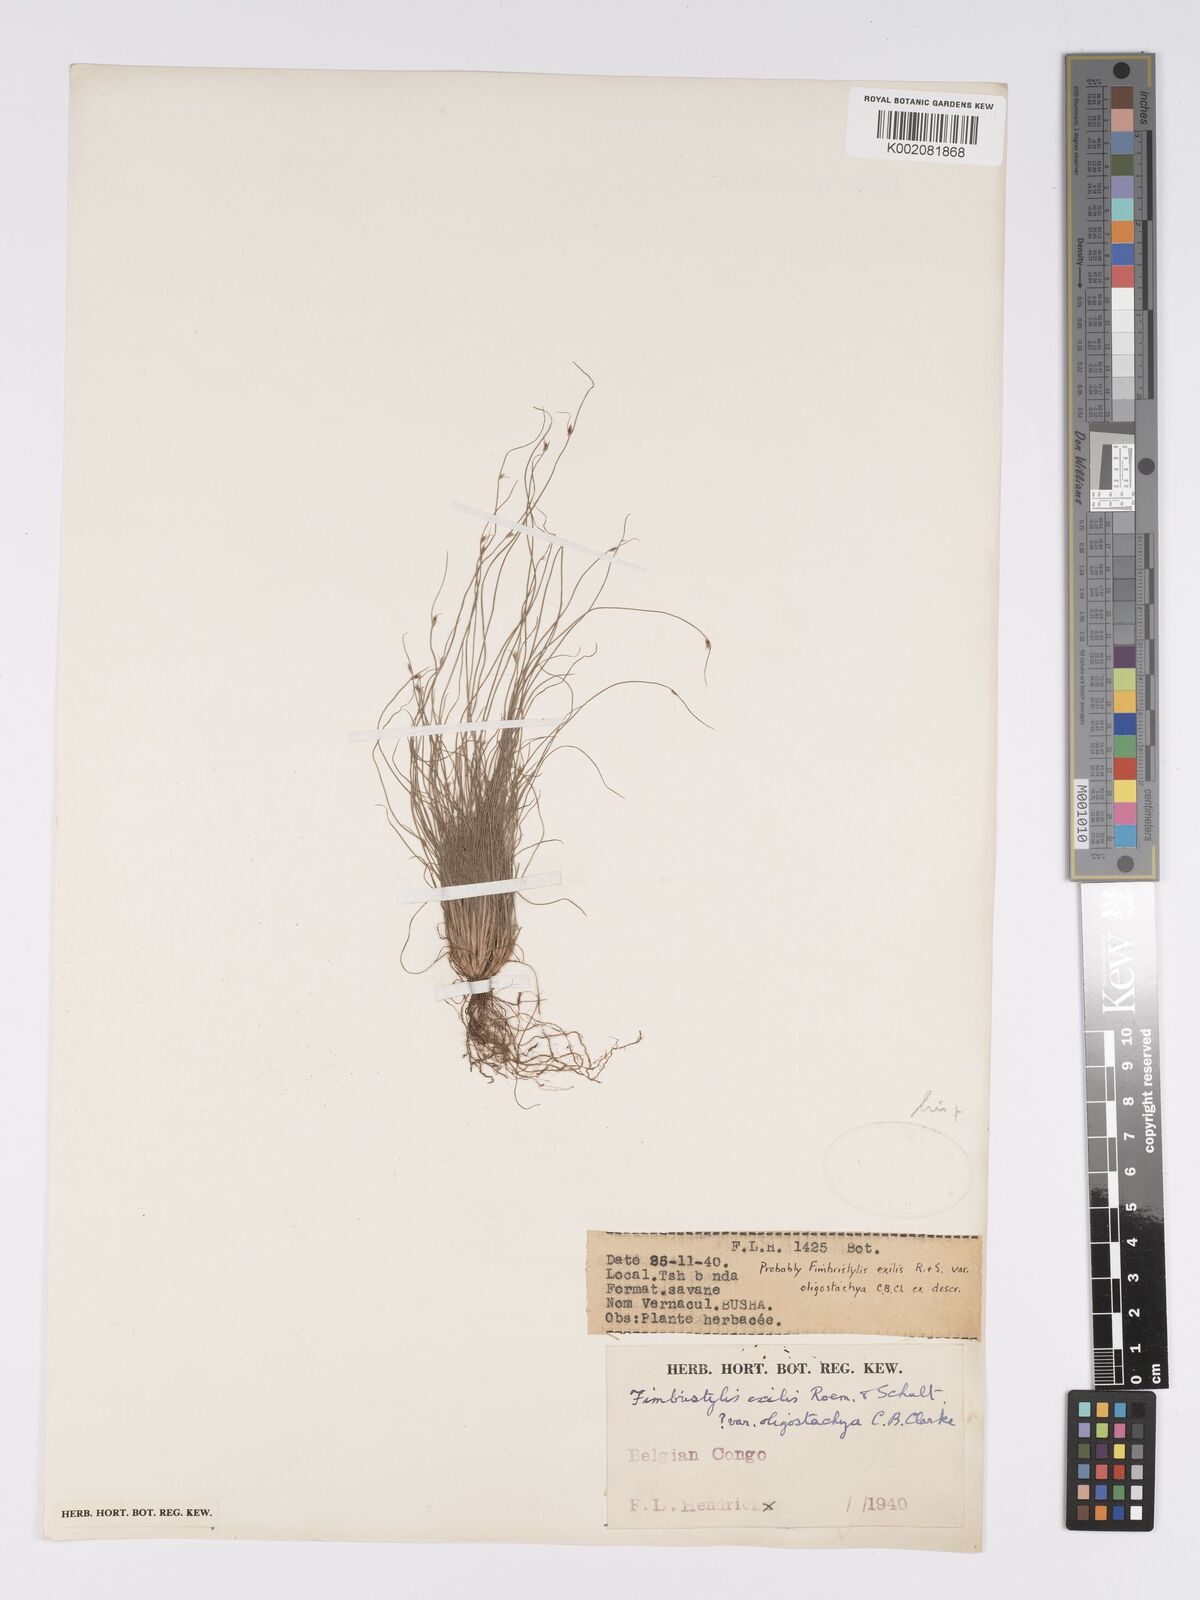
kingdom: Plantae
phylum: Tracheophyta
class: Liliopsida
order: Poales
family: Cyperaceae
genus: Bulbostylis
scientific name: Bulbostylis hispidula
